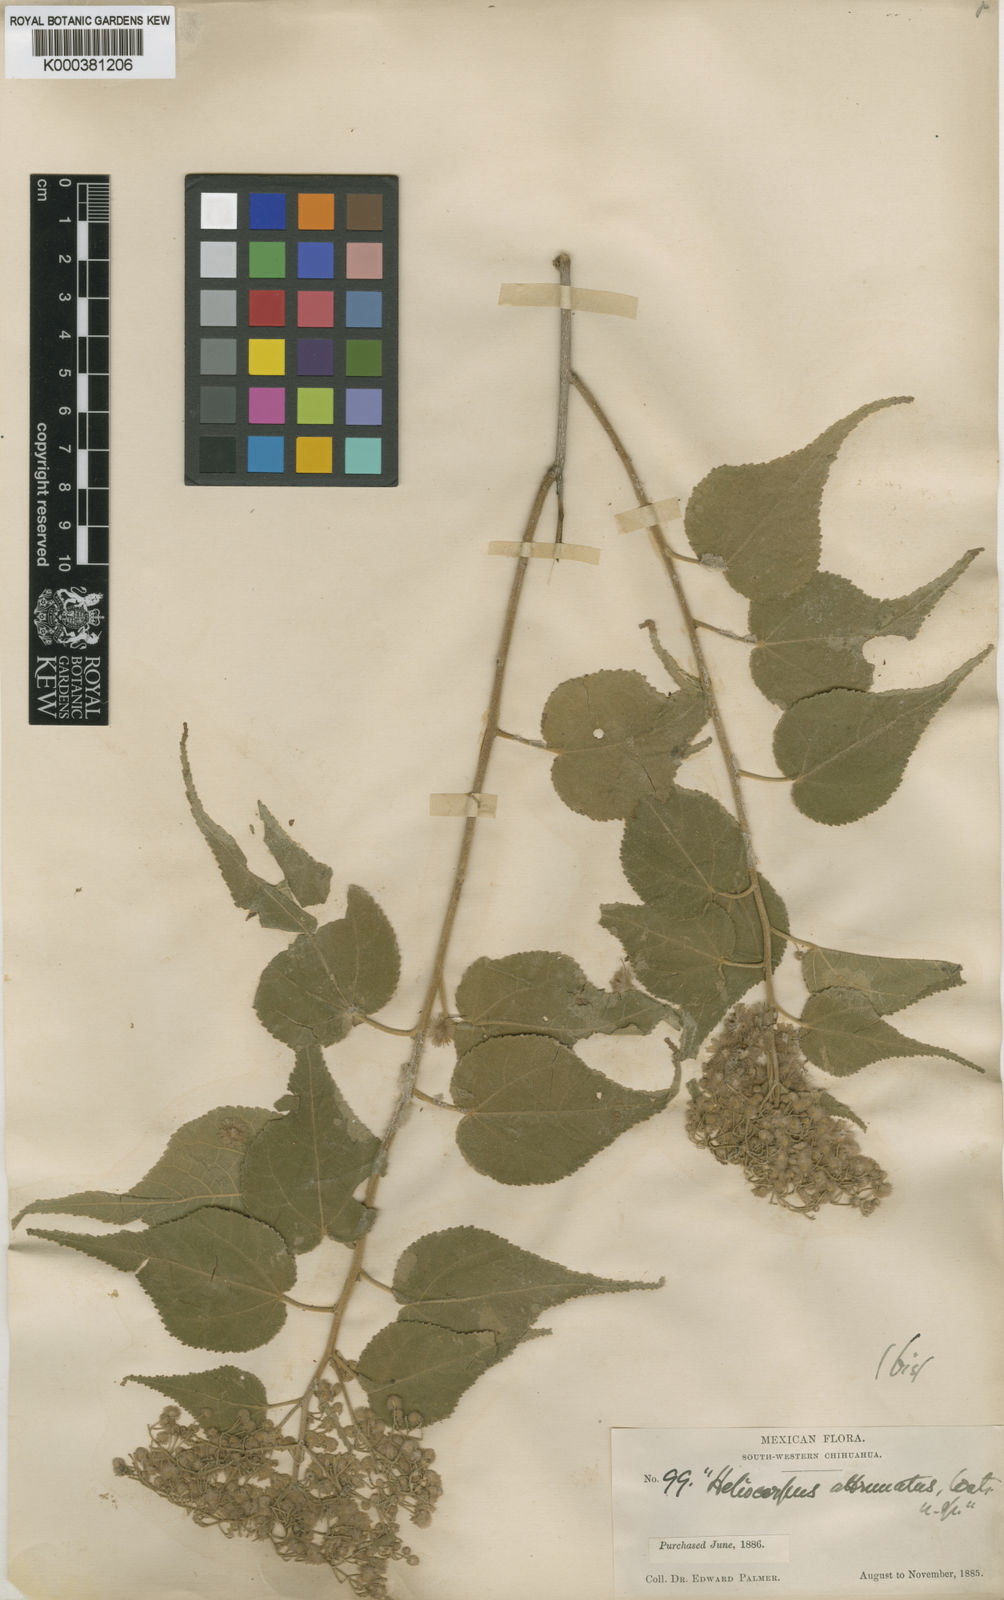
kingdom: Plantae
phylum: Tracheophyta
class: Magnoliopsida
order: Malvales
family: Malvaceae
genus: Heliocarpus
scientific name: Heliocarpus attenuatus
